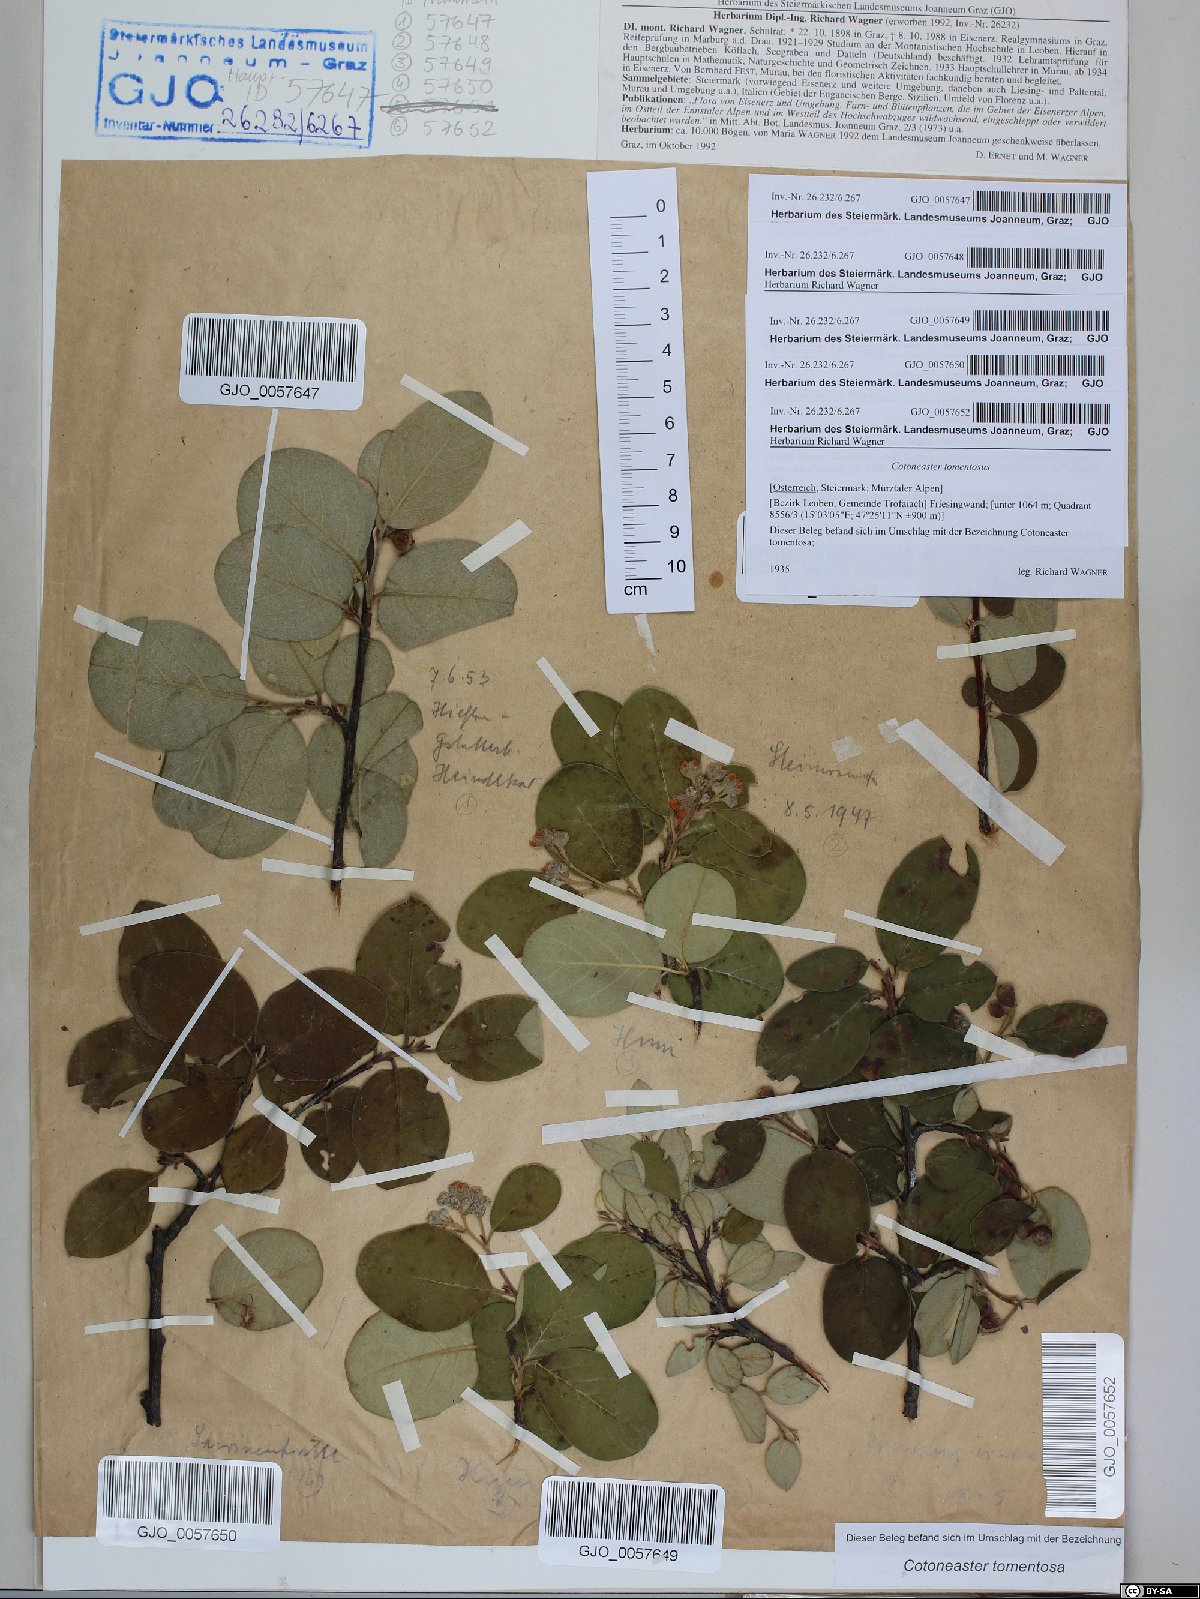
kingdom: Plantae
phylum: Tracheophyta
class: Magnoliopsida
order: Rosales
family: Rosaceae
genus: Cotoneaster
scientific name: Cotoneaster tomentosus
